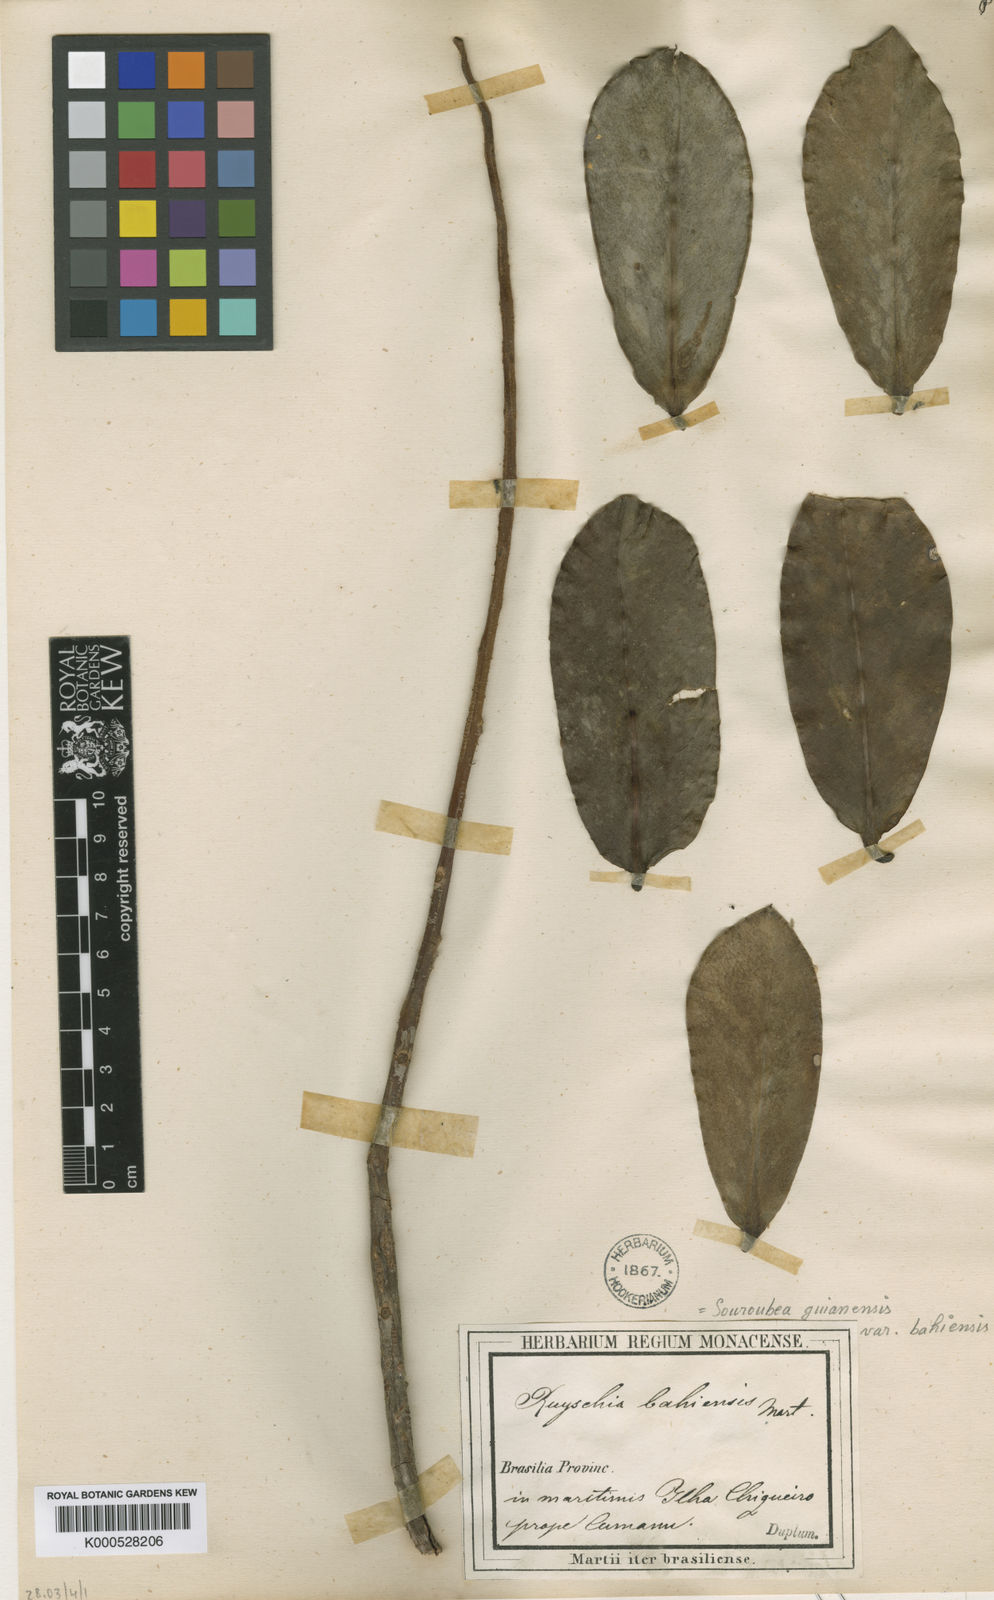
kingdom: Plantae
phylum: Tracheophyta
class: Magnoliopsida
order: Ericales
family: Marcgraviaceae
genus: Souroubea
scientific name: Souroubea guianensis
